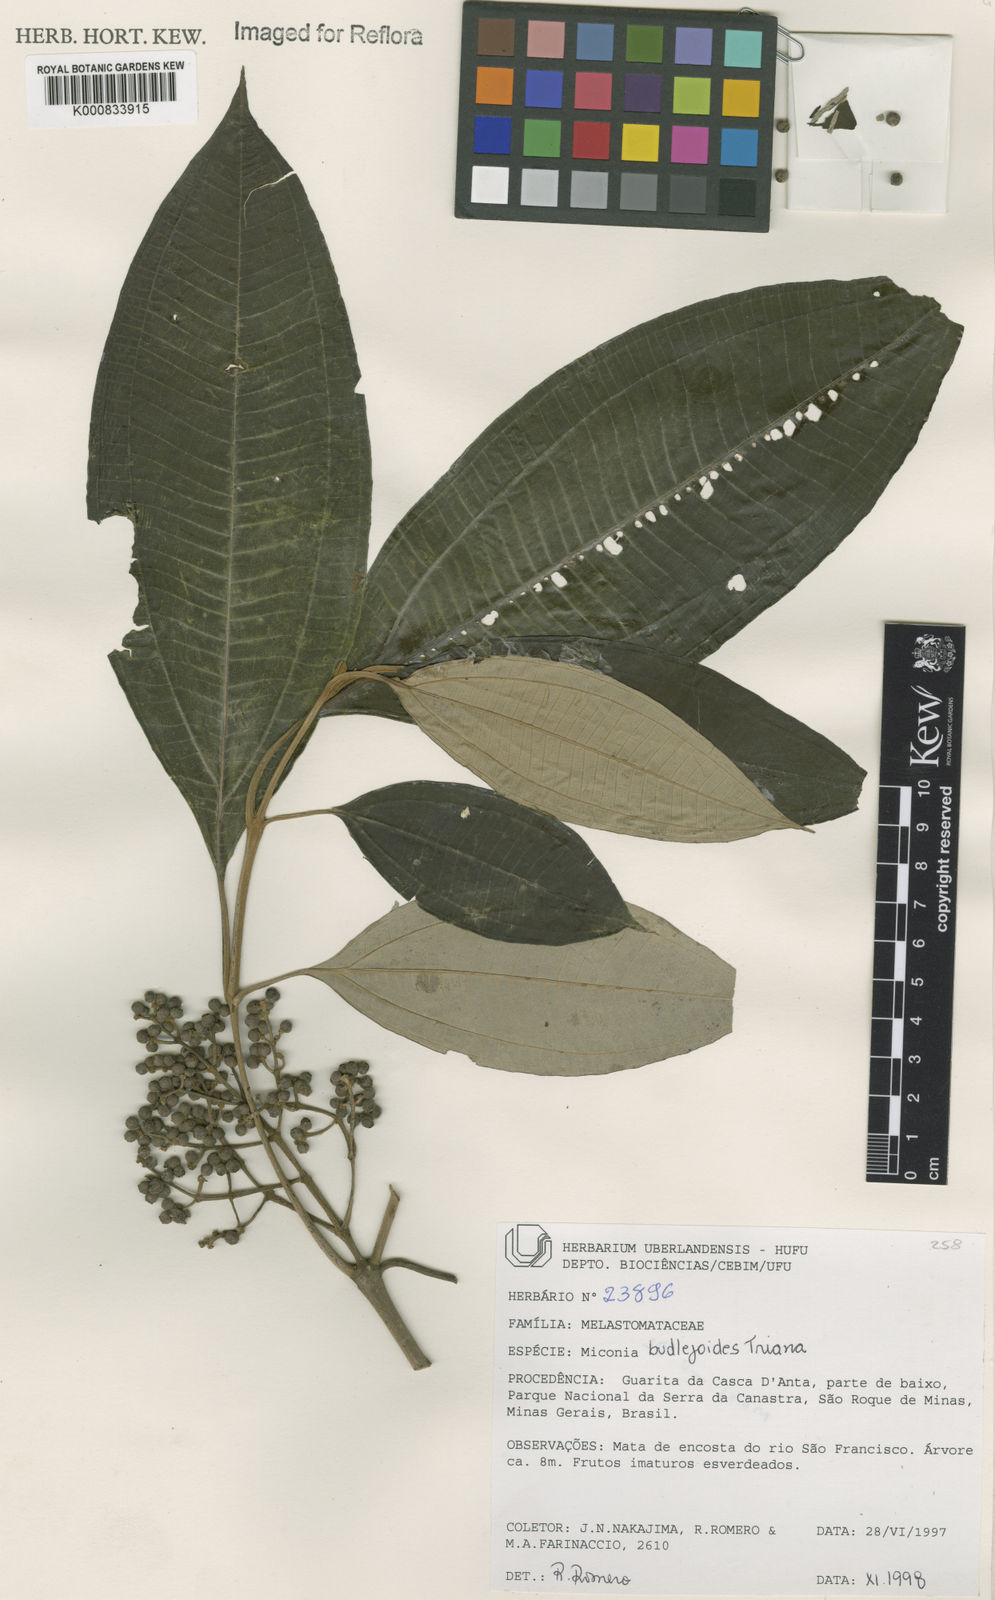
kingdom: Plantae
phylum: Tracheophyta
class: Magnoliopsida
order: Myrtales
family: Melastomataceae
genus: Miconia
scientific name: Miconia buddlejoides
